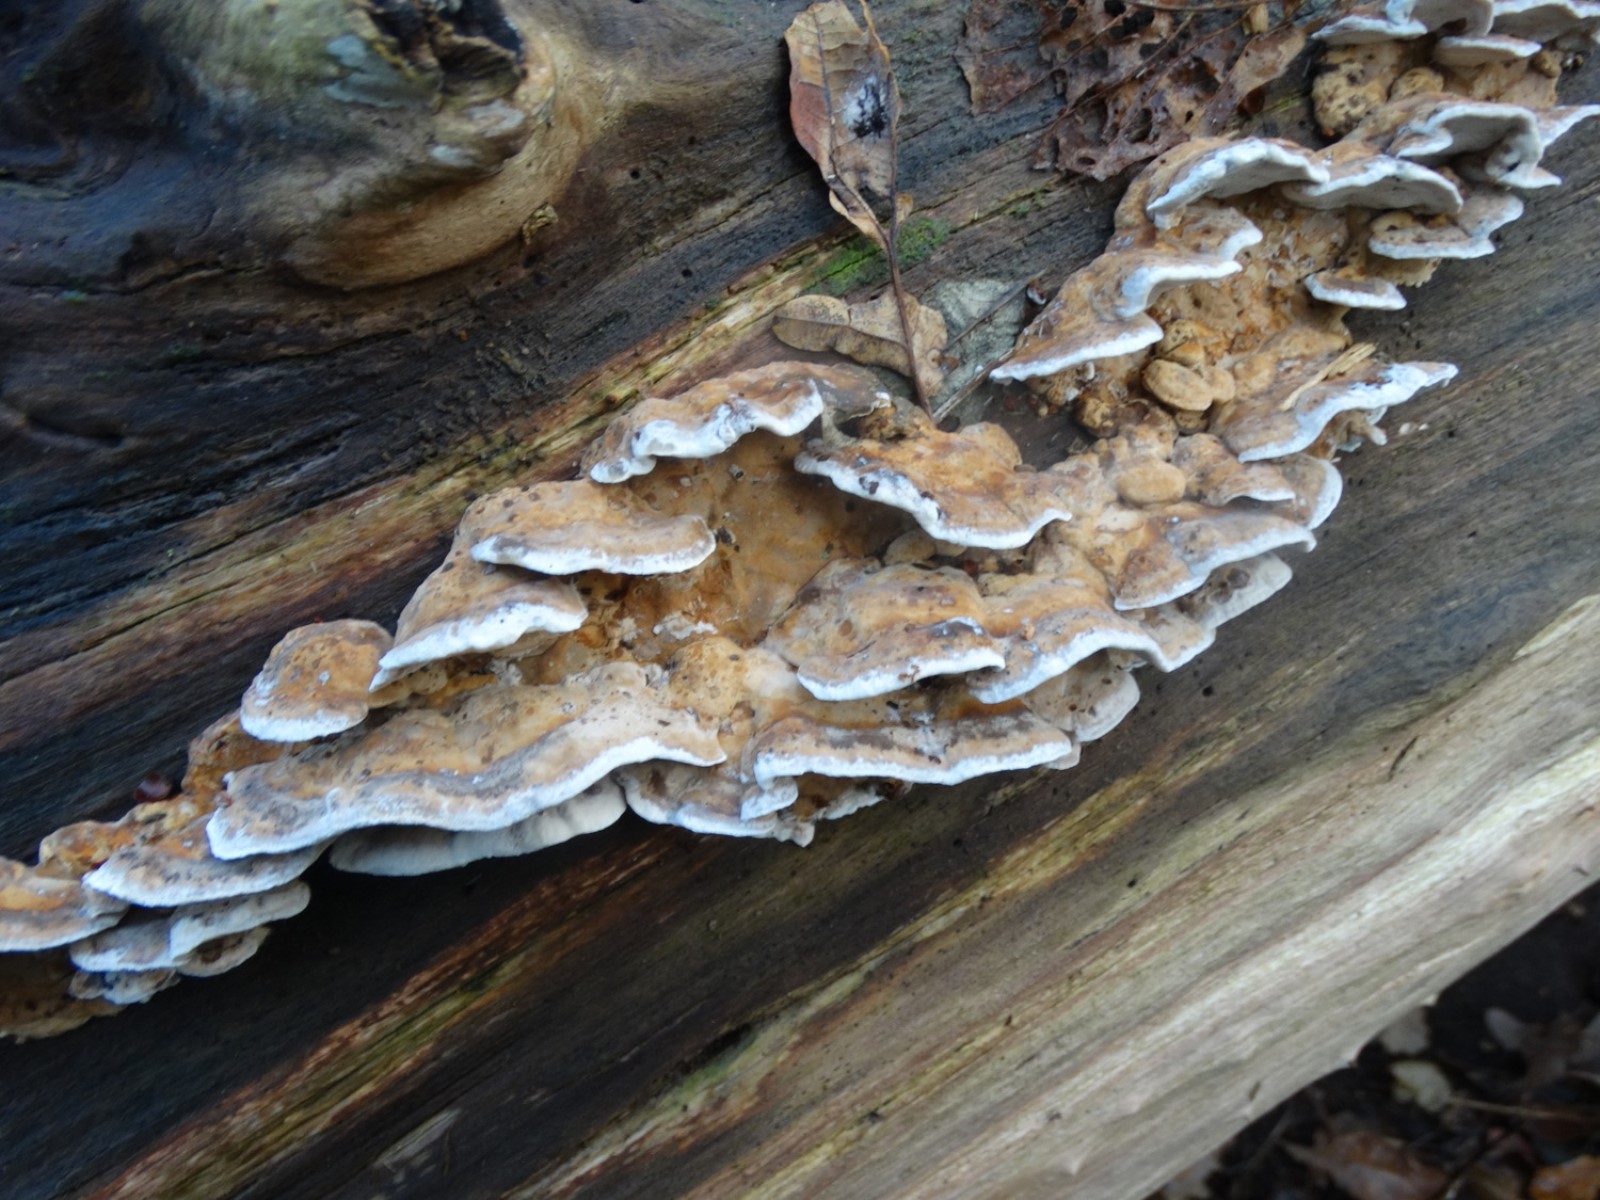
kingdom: Fungi
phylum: Basidiomycota
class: Agaricomycetes
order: Polyporales
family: Phanerochaetaceae
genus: Bjerkandera
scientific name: Bjerkandera fumosa
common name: grågul sodporesvamp
